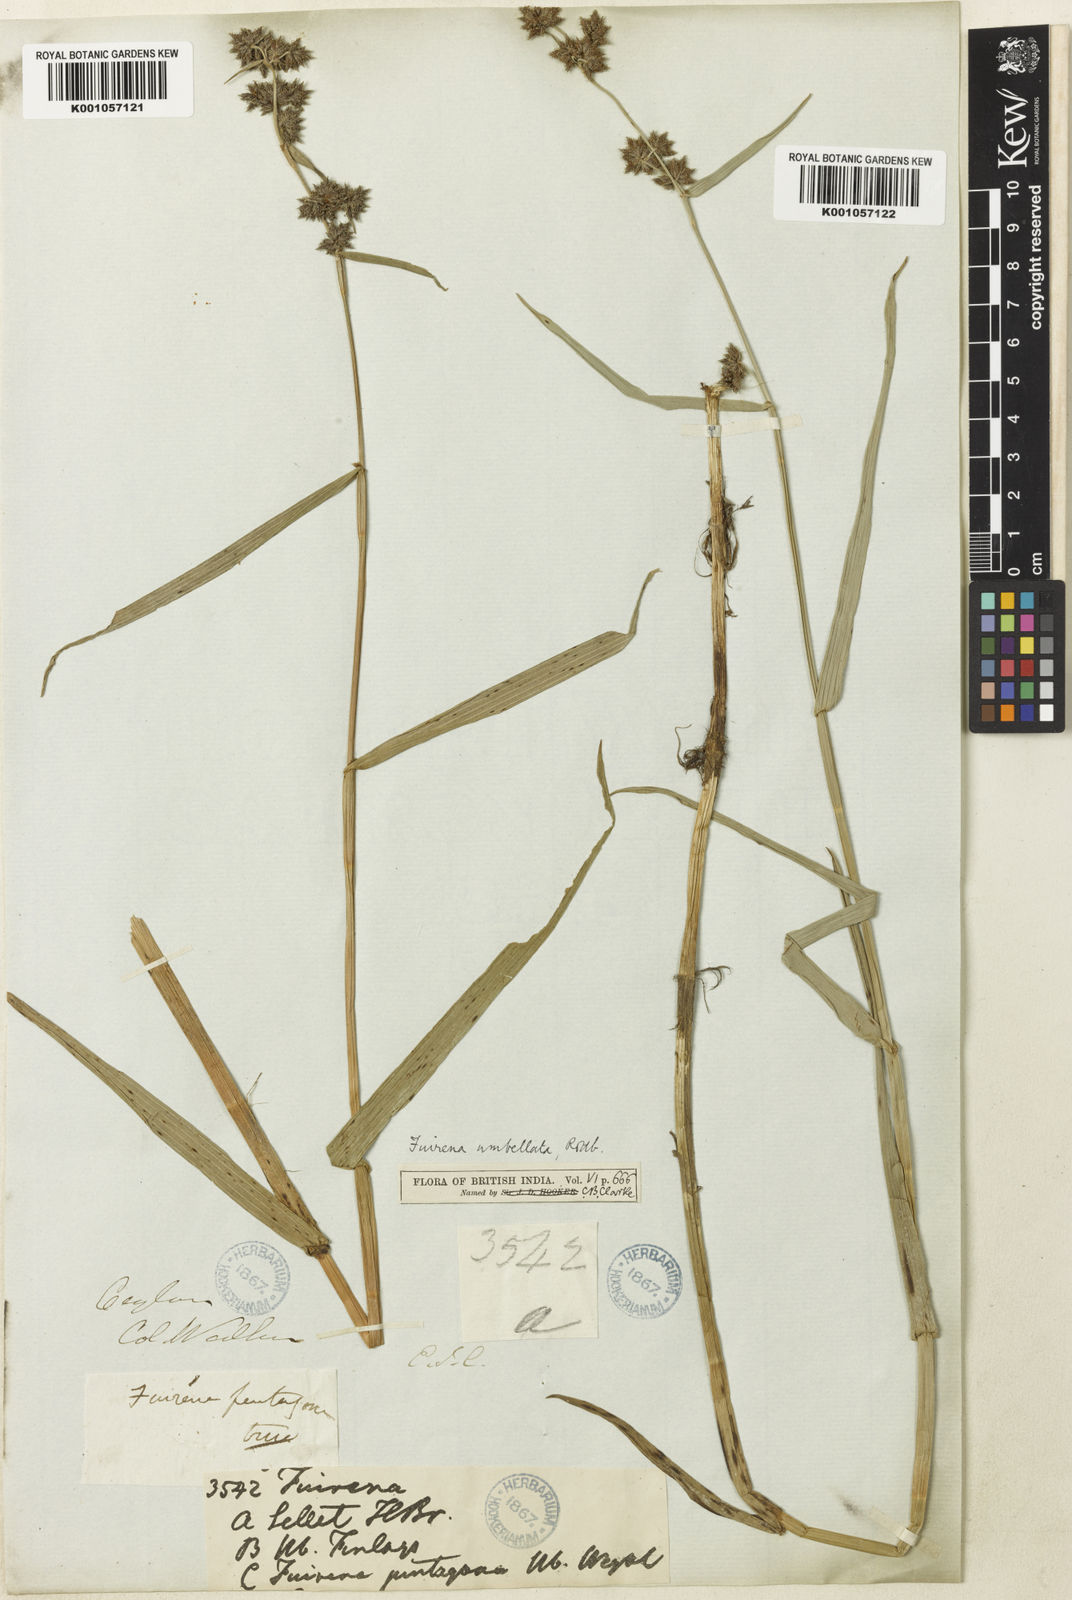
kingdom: Plantae
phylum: Tracheophyta
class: Liliopsida
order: Poales
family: Cyperaceae
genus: Fuirena
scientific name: Fuirena umbellata
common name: Yefen
